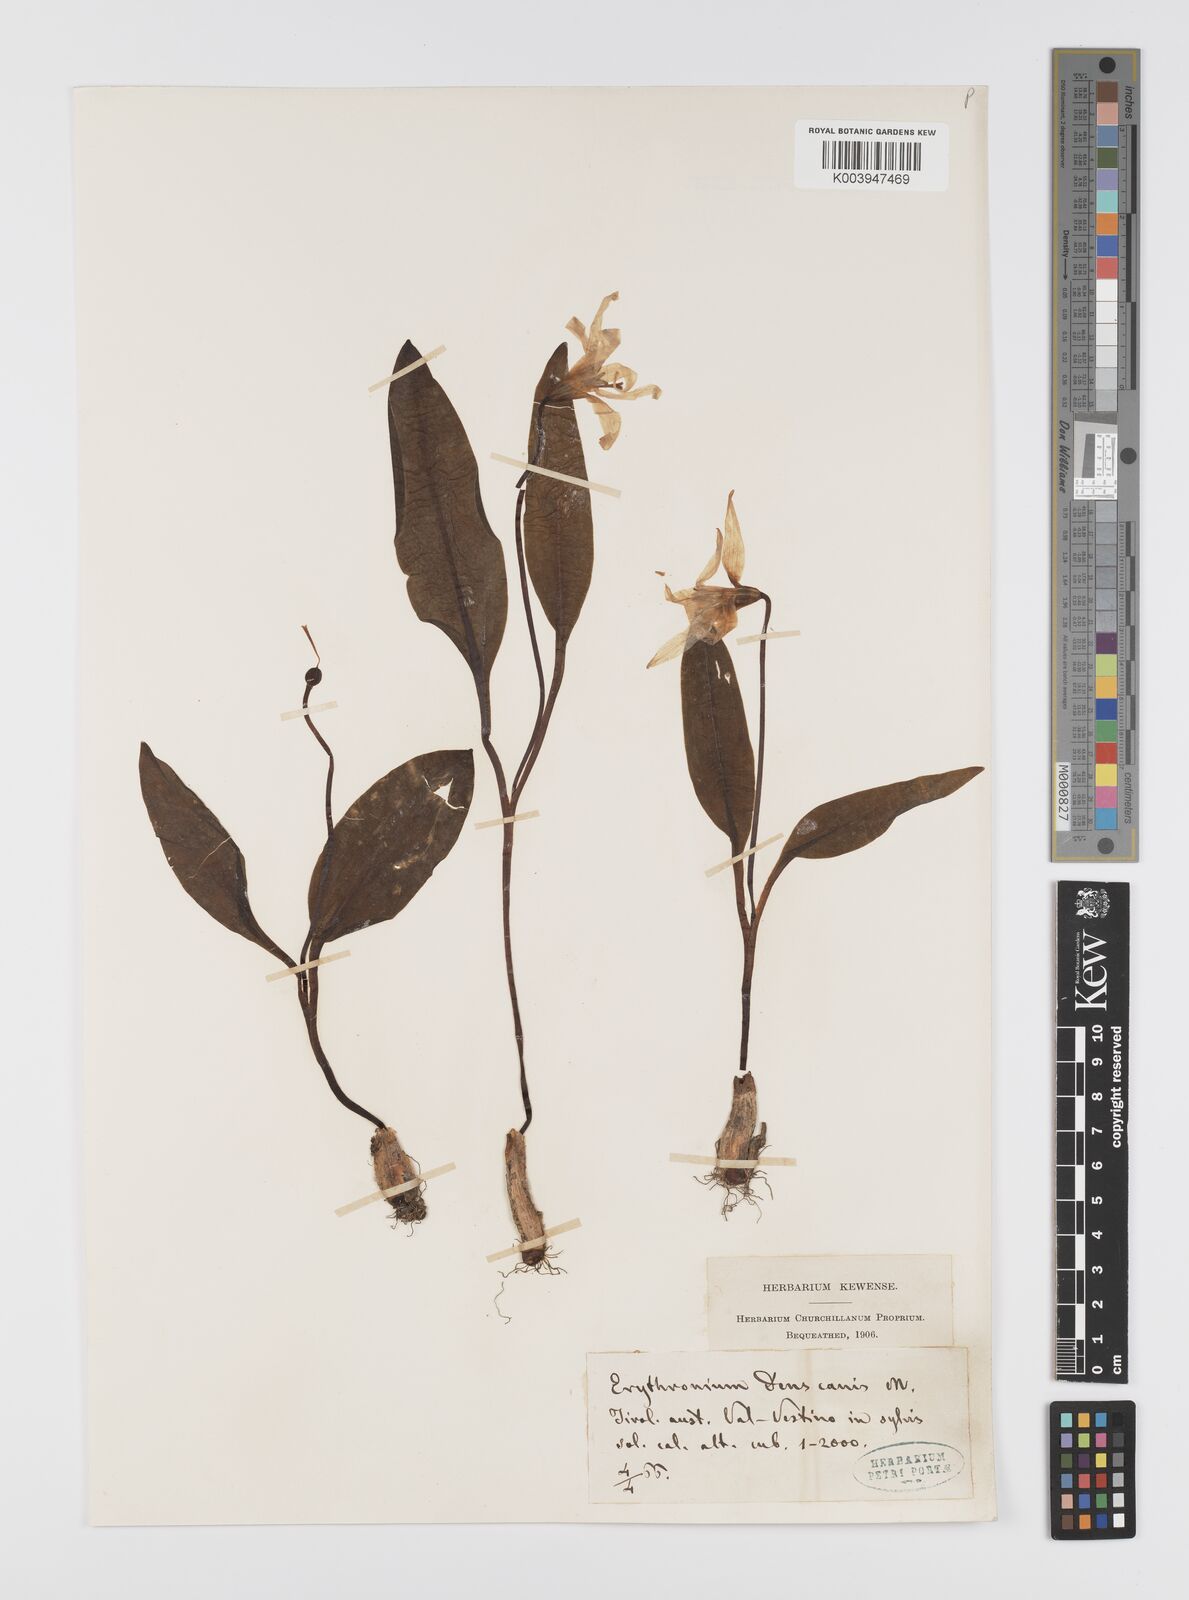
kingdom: Plantae
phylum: Tracheophyta
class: Liliopsida
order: Liliales
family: Liliaceae
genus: Erythronium
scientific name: Erythronium dens-canis
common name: Dog's-tooth-violet
